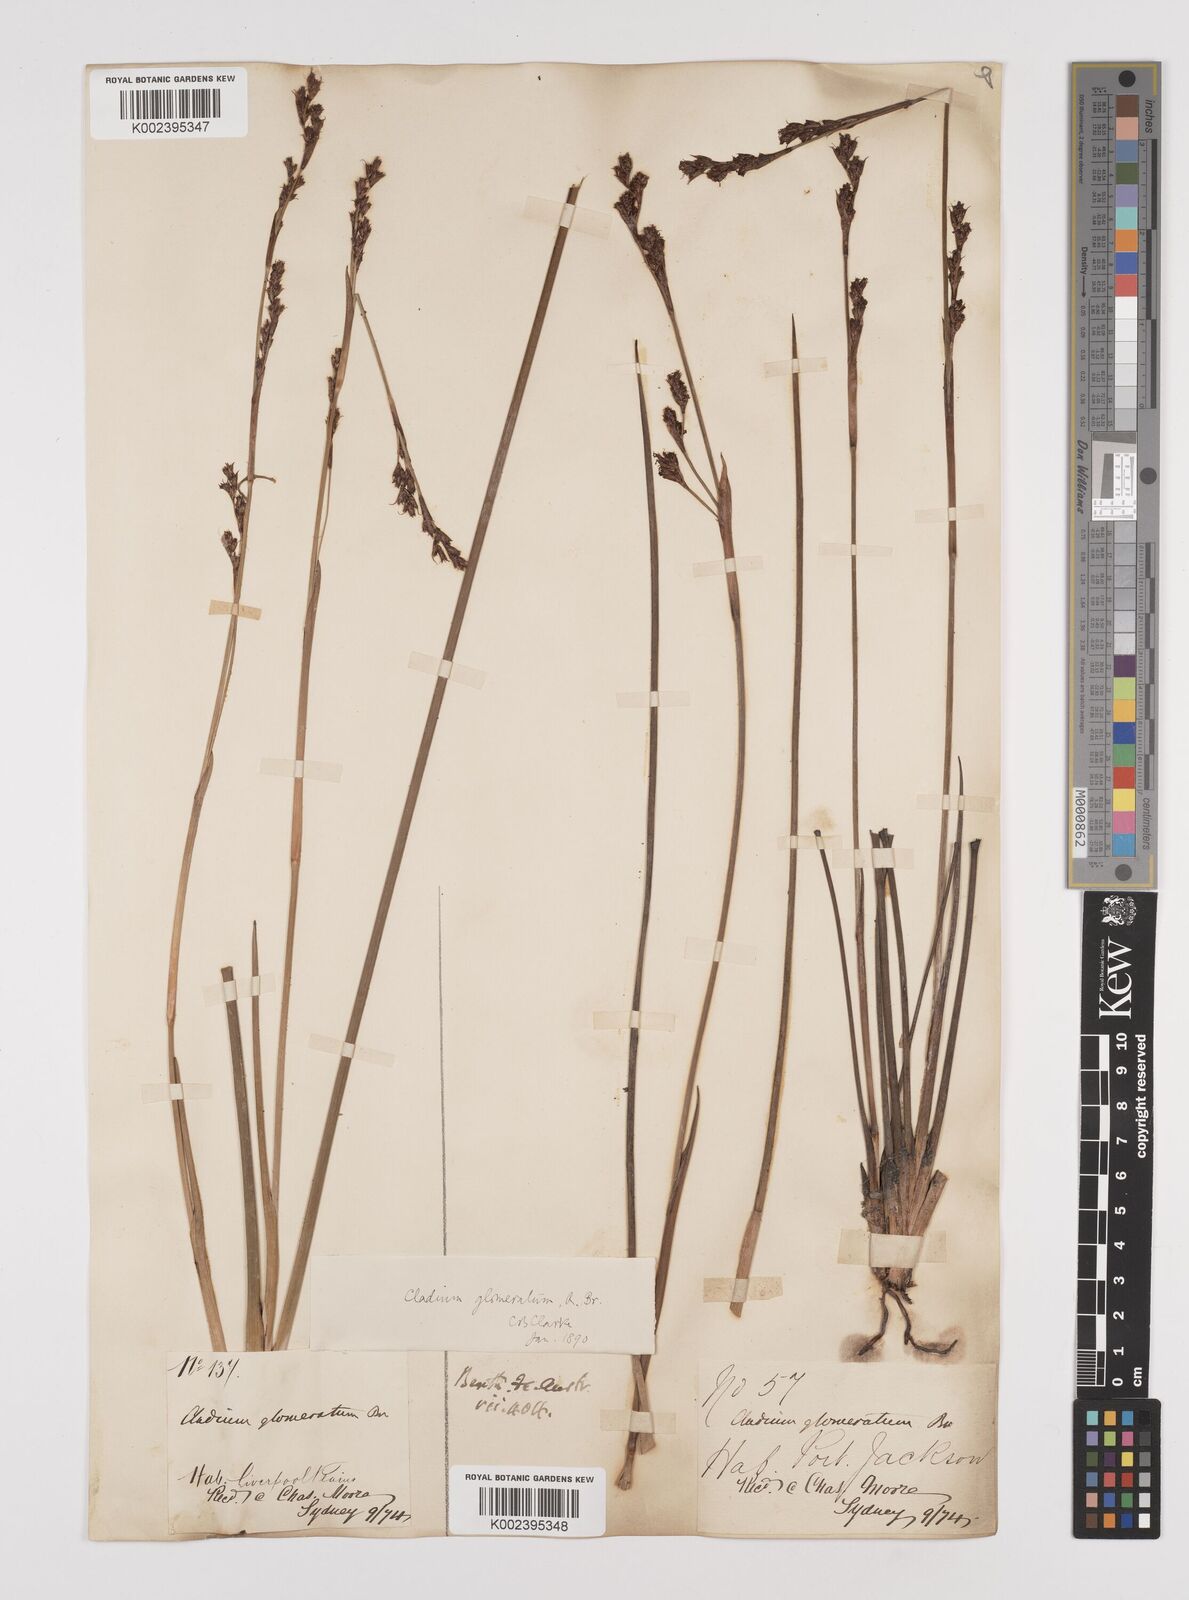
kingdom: Plantae
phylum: Tracheophyta
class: Liliopsida
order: Poales
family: Cyperaceae
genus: Machaerina
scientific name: Machaerina rubiginosa
